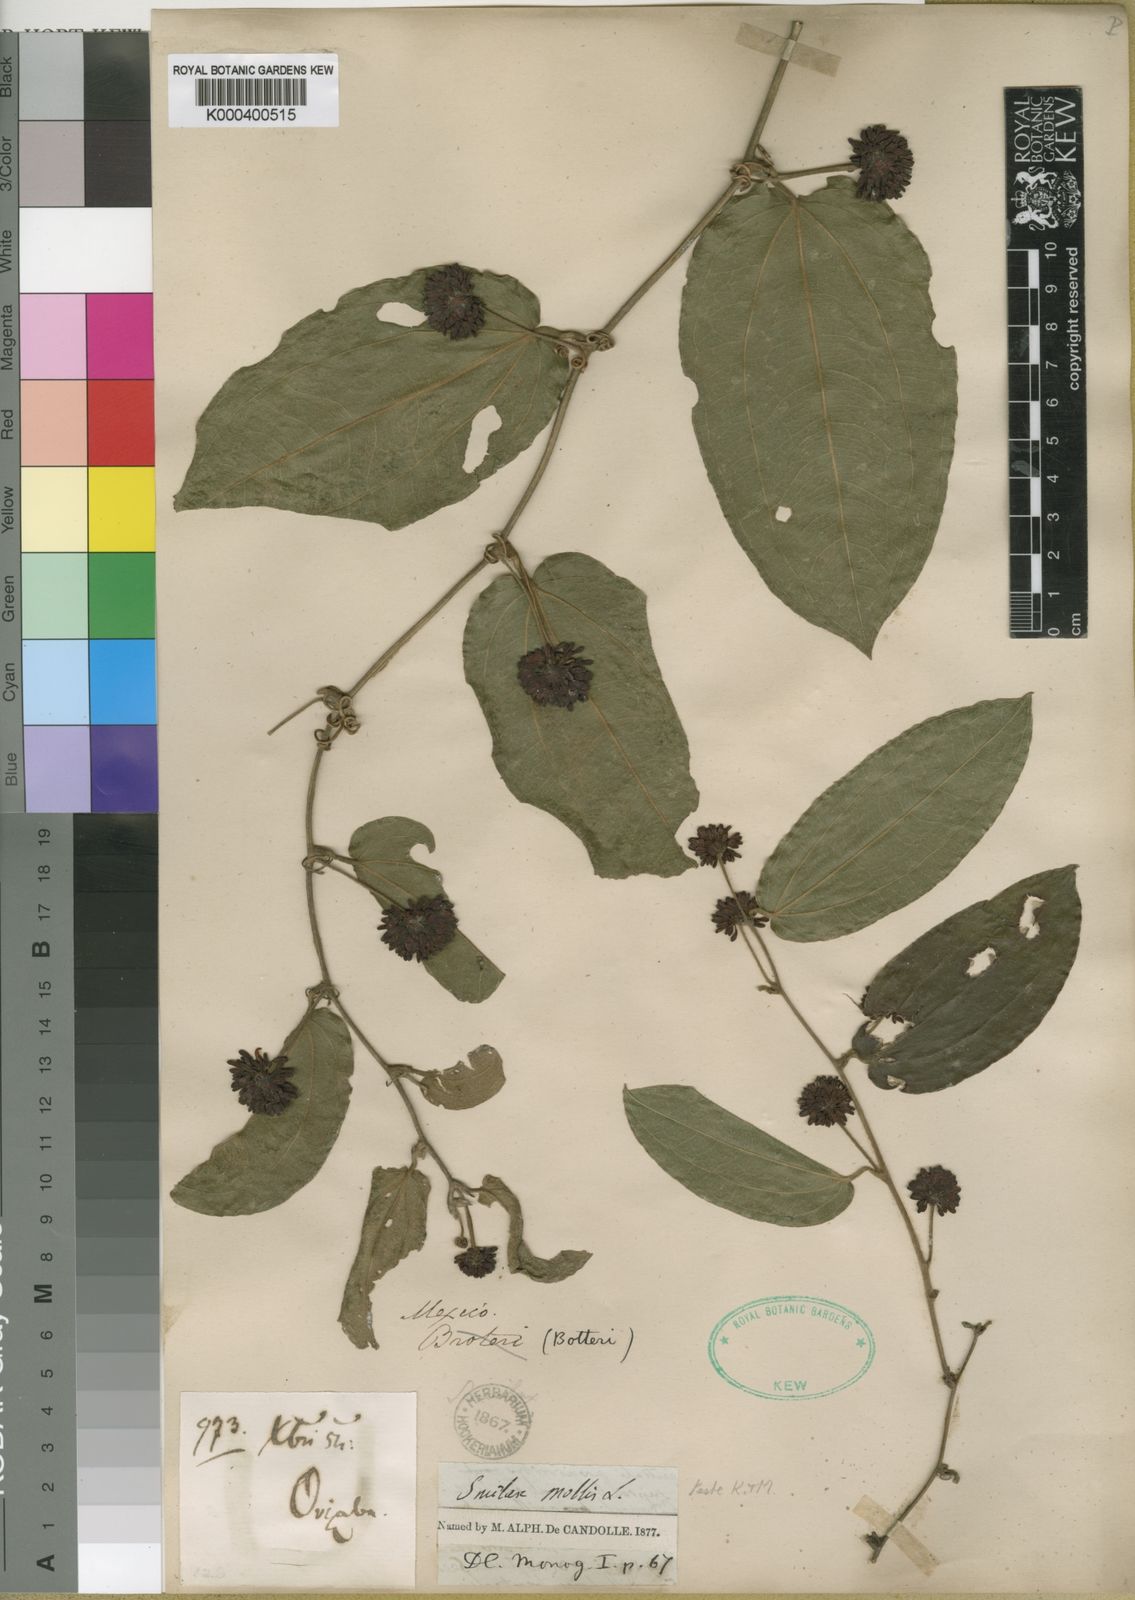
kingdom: Plantae
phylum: Tracheophyta
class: Liliopsida
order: Liliales
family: Smilacaceae
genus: Smilax
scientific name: Smilax mollis
